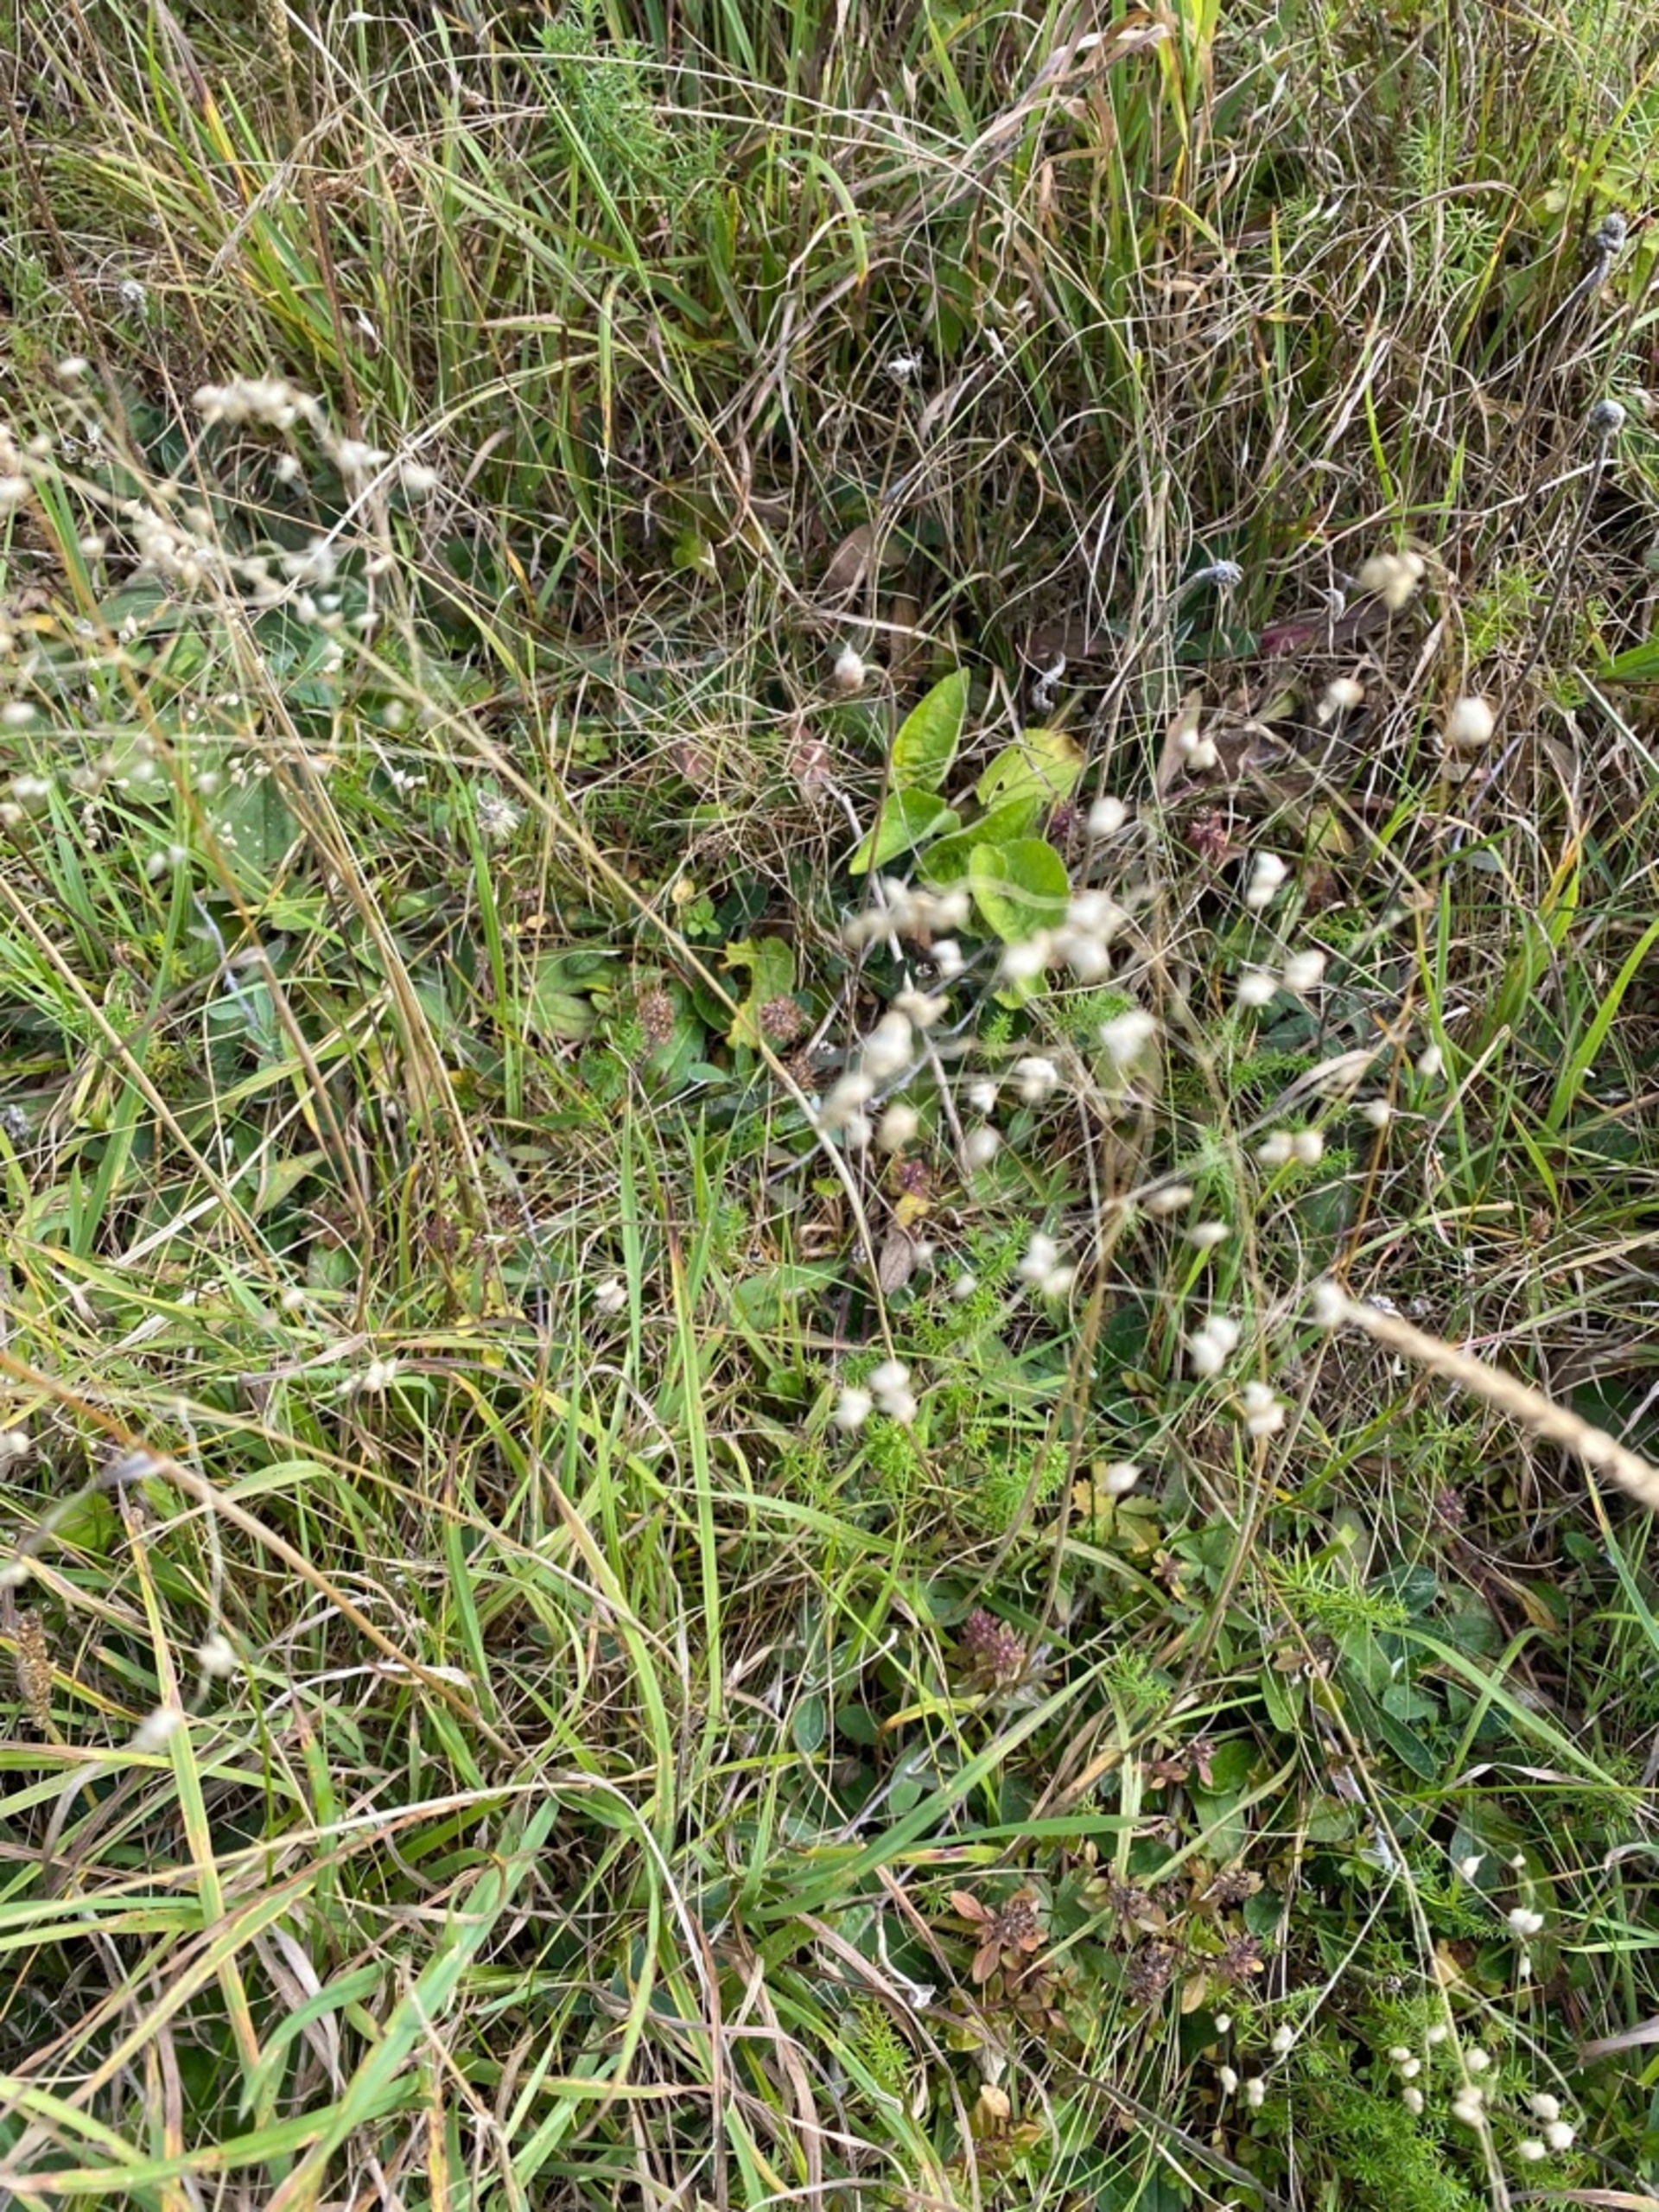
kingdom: Plantae
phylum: Tracheophyta
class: Liliopsida
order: Poales
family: Poaceae
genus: Briza
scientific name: Briza media
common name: Hjertegræs
